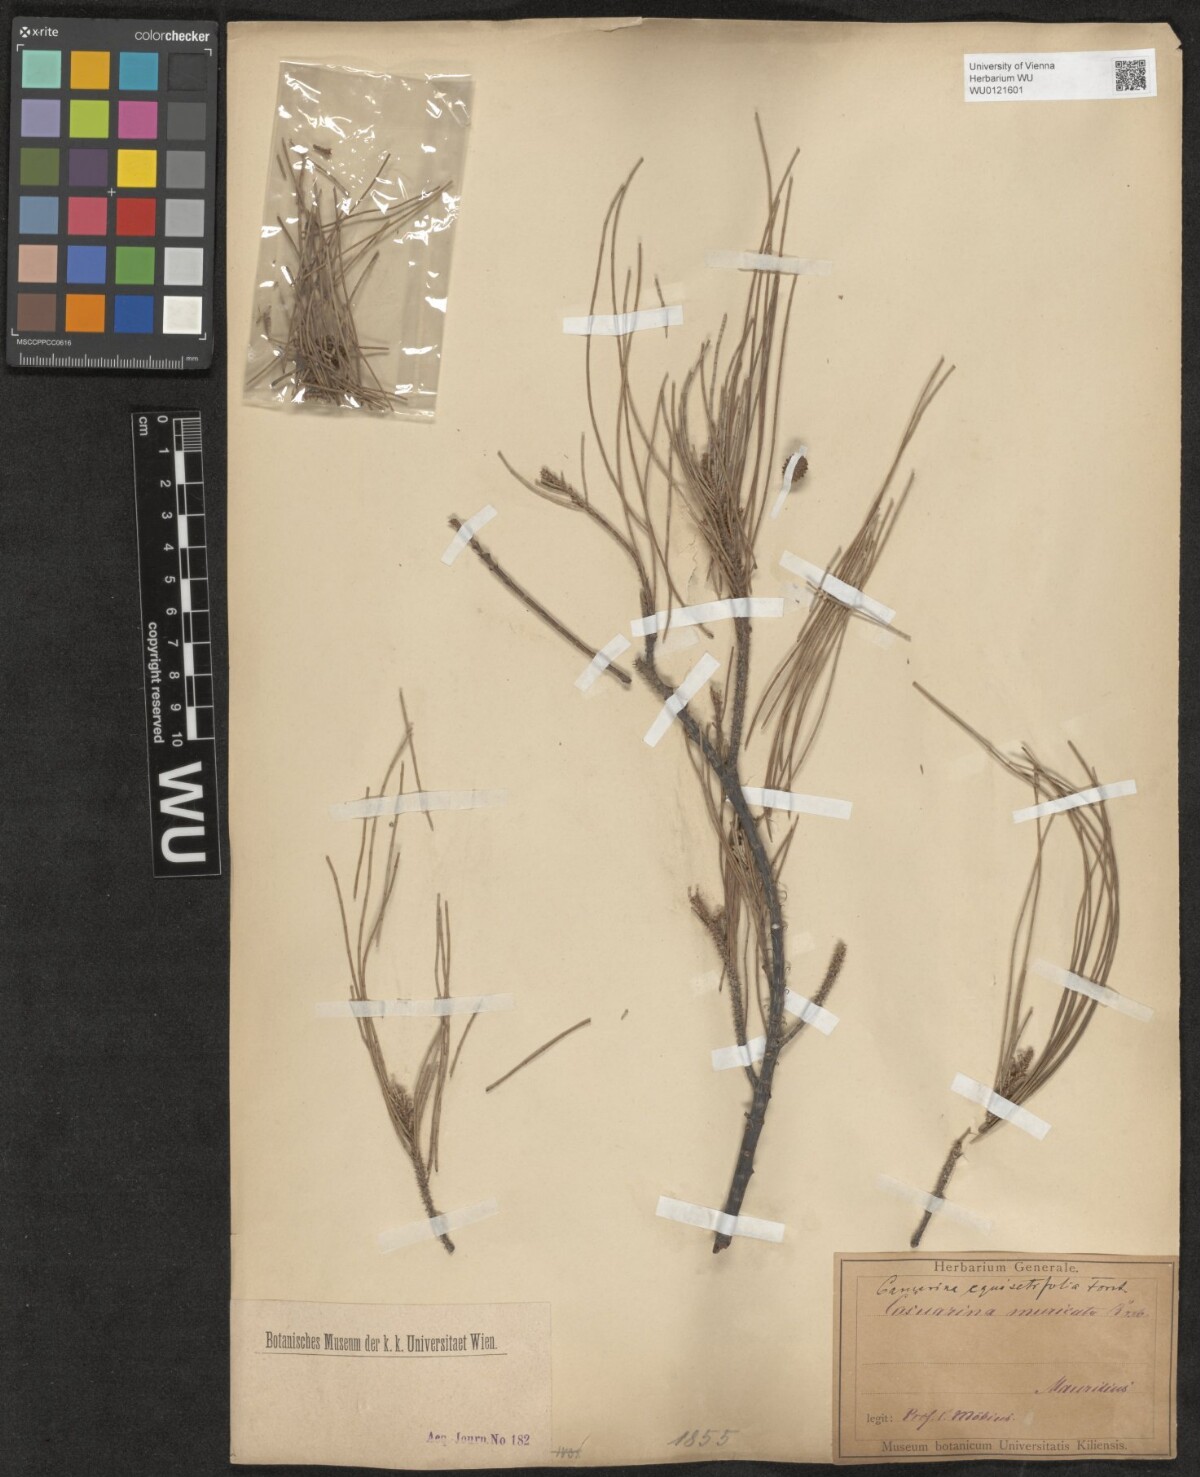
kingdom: Plantae
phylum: Tracheophyta
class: Magnoliopsida
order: Fagales
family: Casuarinaceae
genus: Casuarina
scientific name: Casuarina equisetifolia
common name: Beach sheoak
